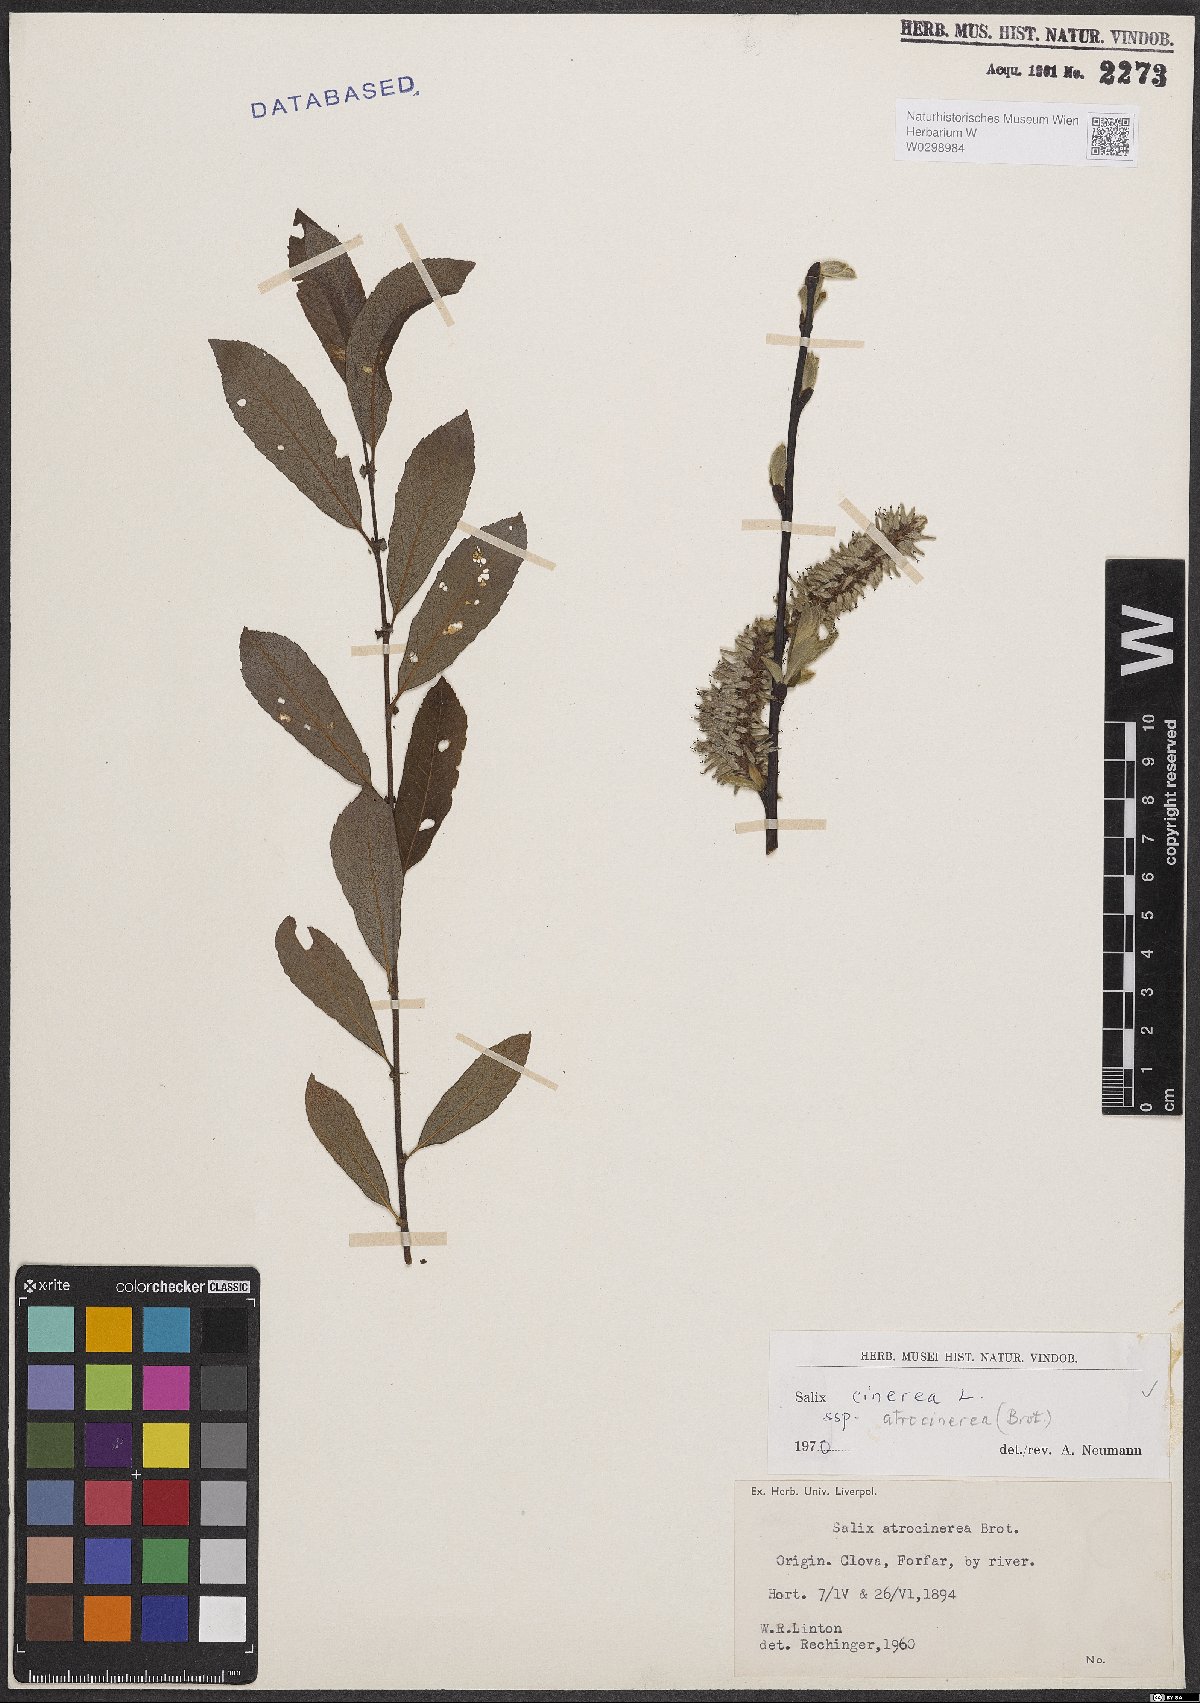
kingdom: Plantae
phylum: Tracheophyta
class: Magnoliopsida
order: Malpighiales
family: Salicaceae
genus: Salix
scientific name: Salix atrocinerea
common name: Rusty willow
